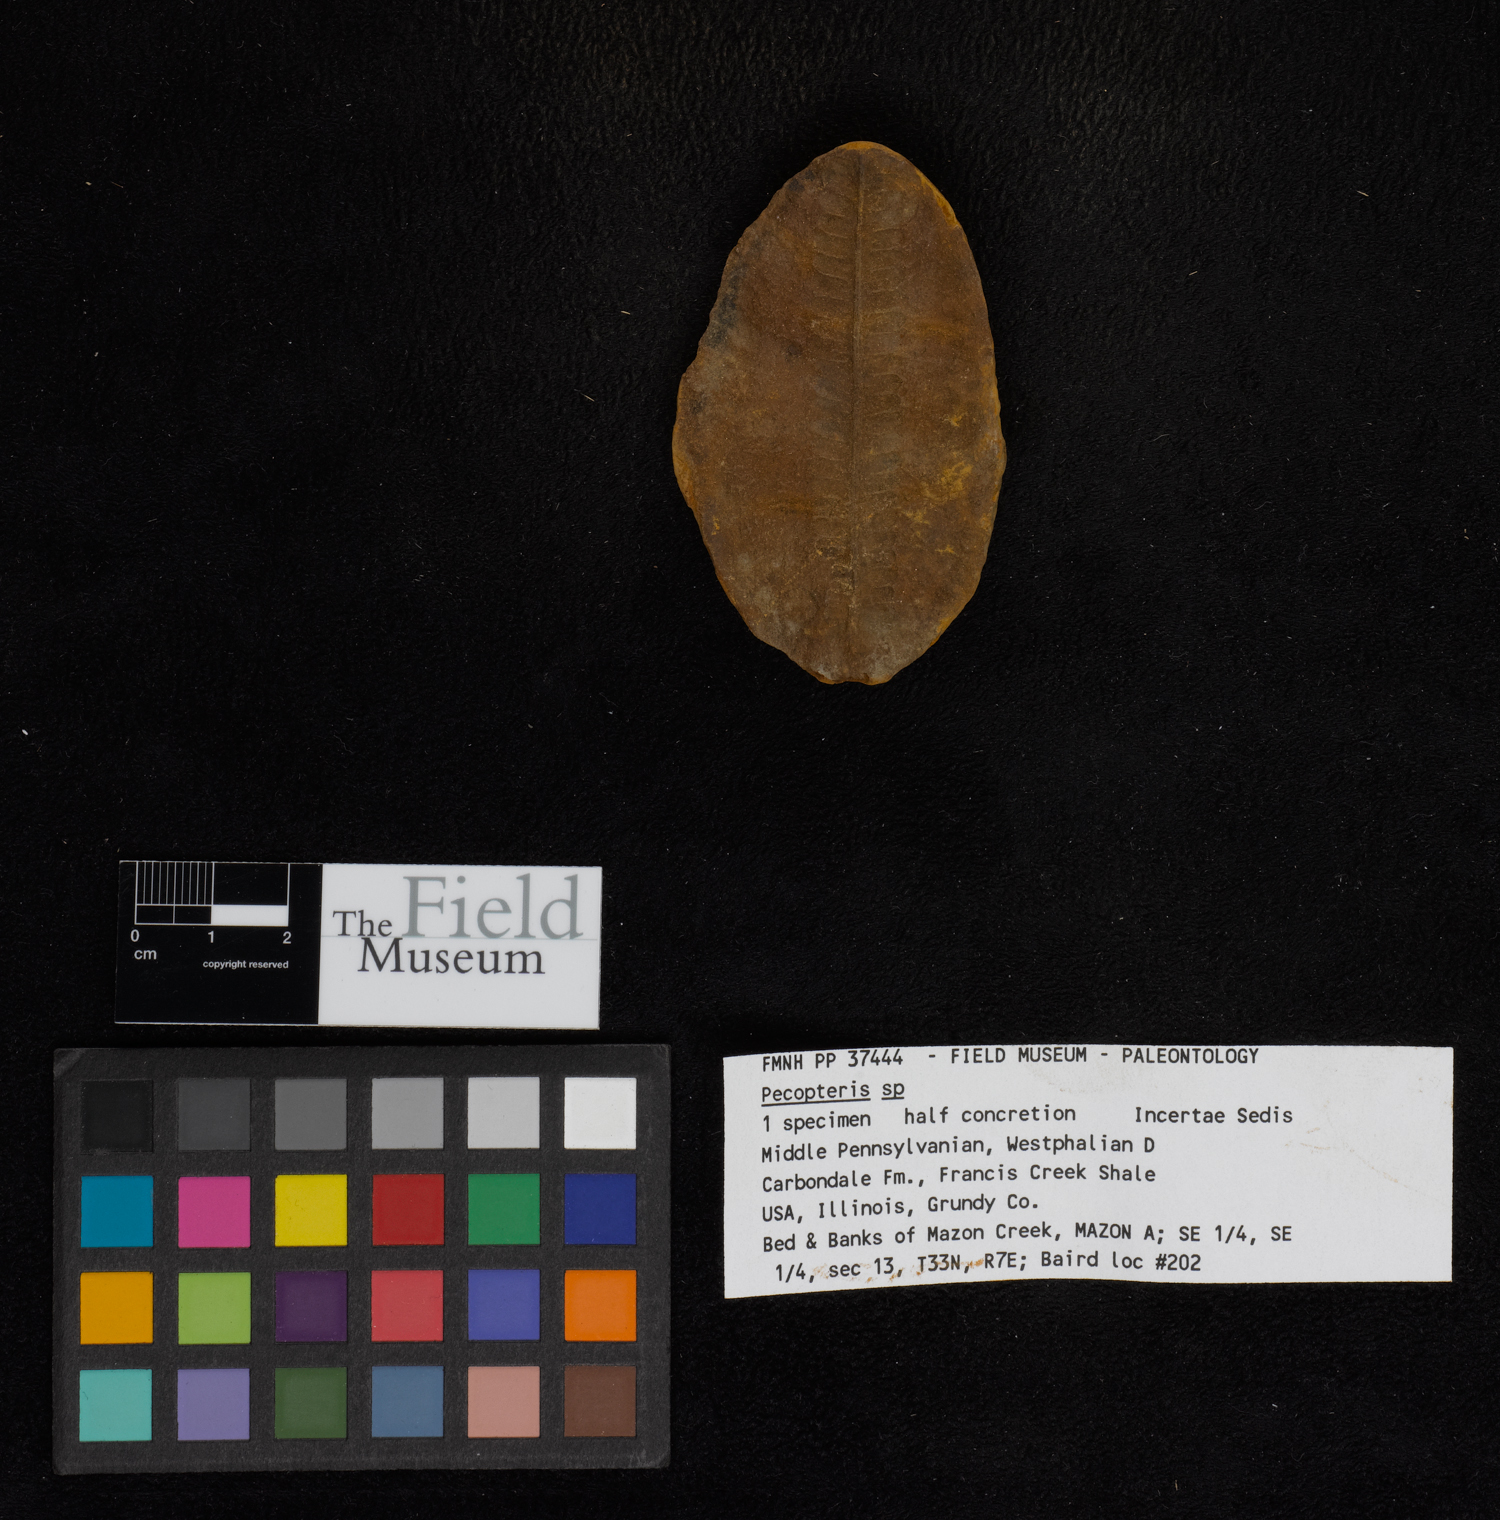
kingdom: Plantae
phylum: Tracheophyta
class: Polypodiopsida
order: Marattiales
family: Asterothecaceae
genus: Pecopteris
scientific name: Pecopteris
